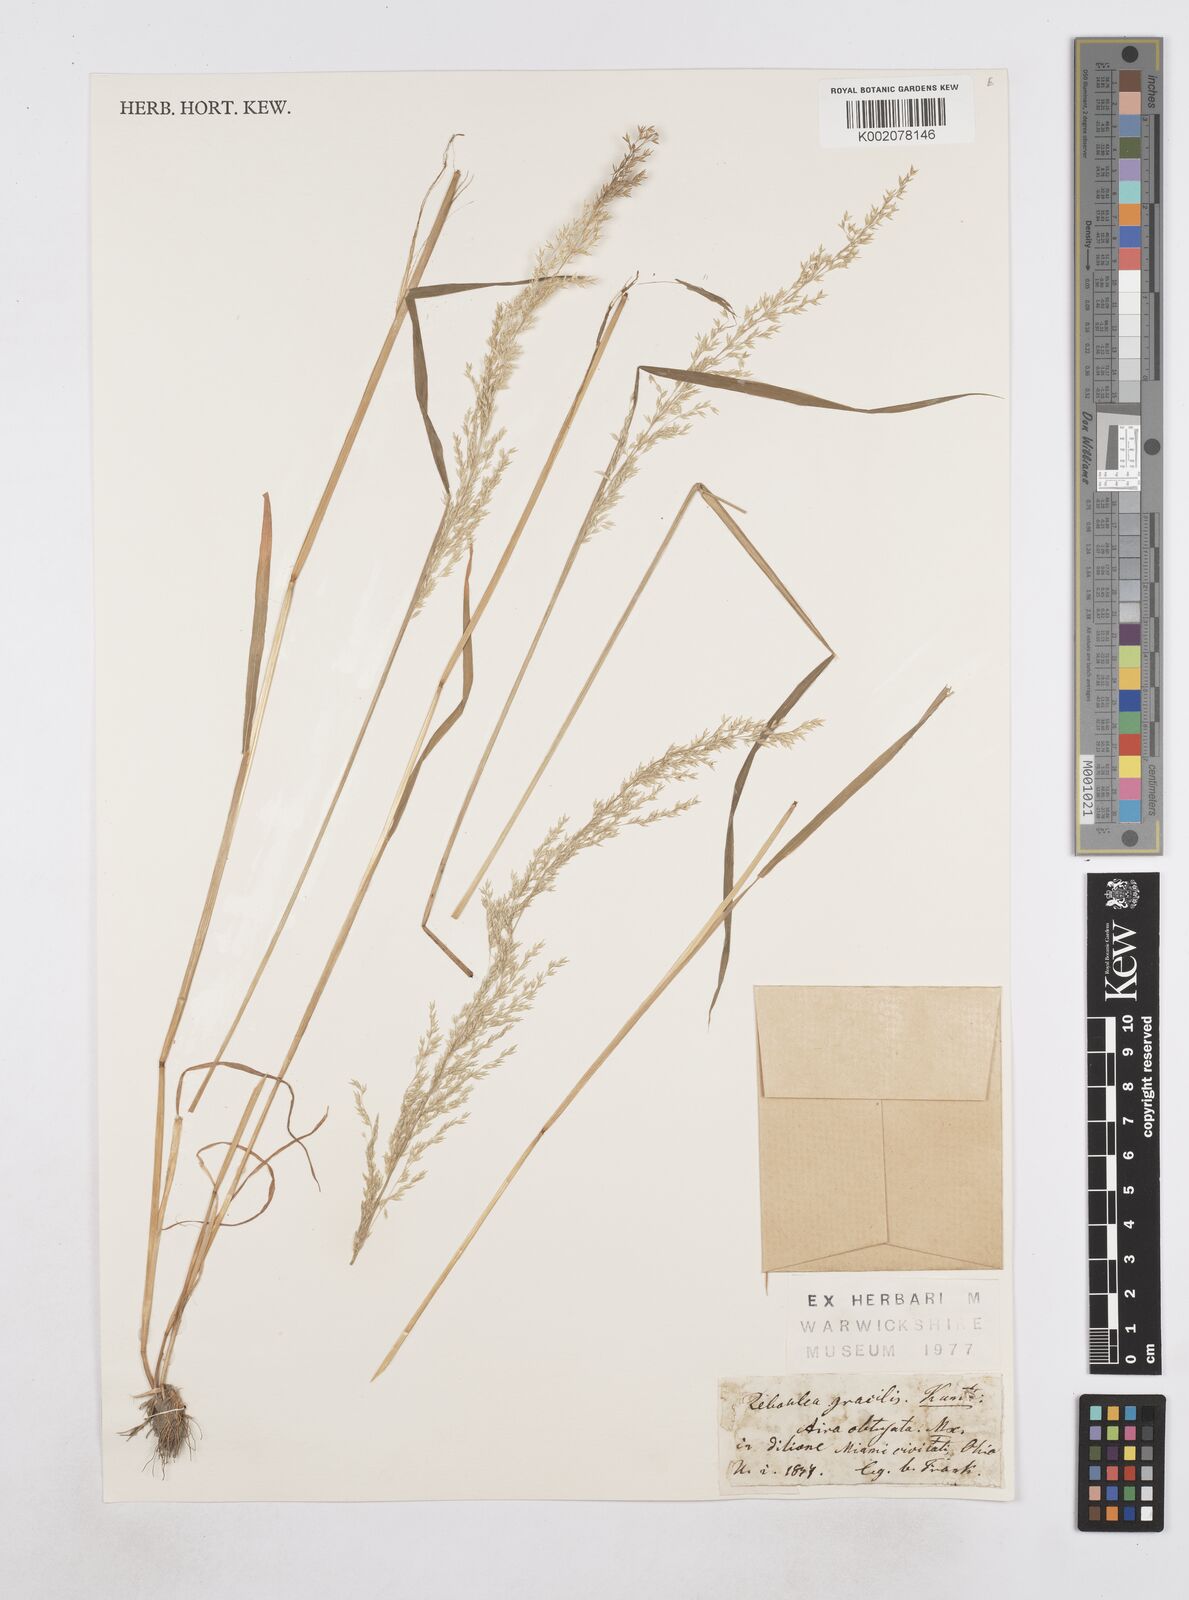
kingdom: Plantae
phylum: Tracheophyta
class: Liliopsida
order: Poales
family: Poaceae
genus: Poa
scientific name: Poa
